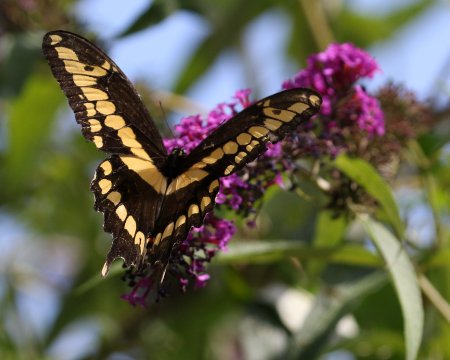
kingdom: Animalia
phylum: Arthropoda
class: Insecta
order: Lepidoptera
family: Papilionidae
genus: Papilio
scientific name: Papilio cresphontes
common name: Eastern Giant Swallowtail
